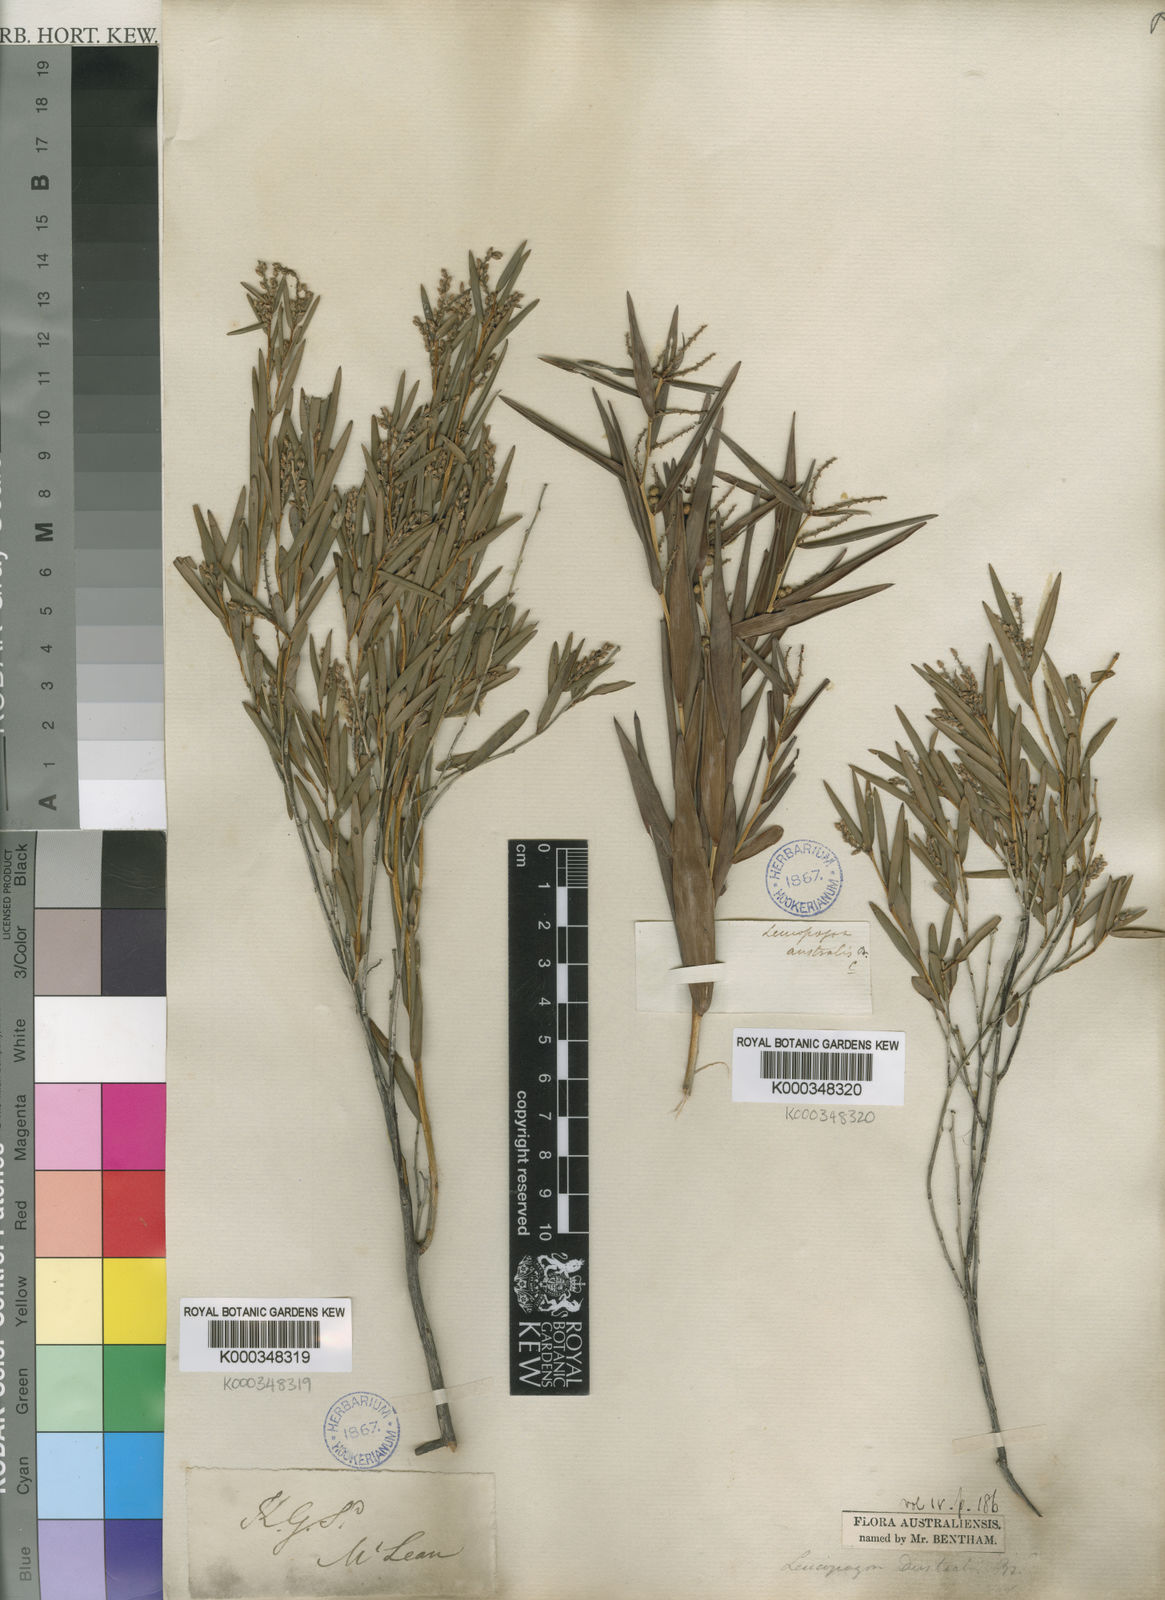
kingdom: Plantae
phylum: Tracheophyta
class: Magnoliopsida
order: Ericales
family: Ericaceae
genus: Leucopogon
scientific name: Leucopogon australis
